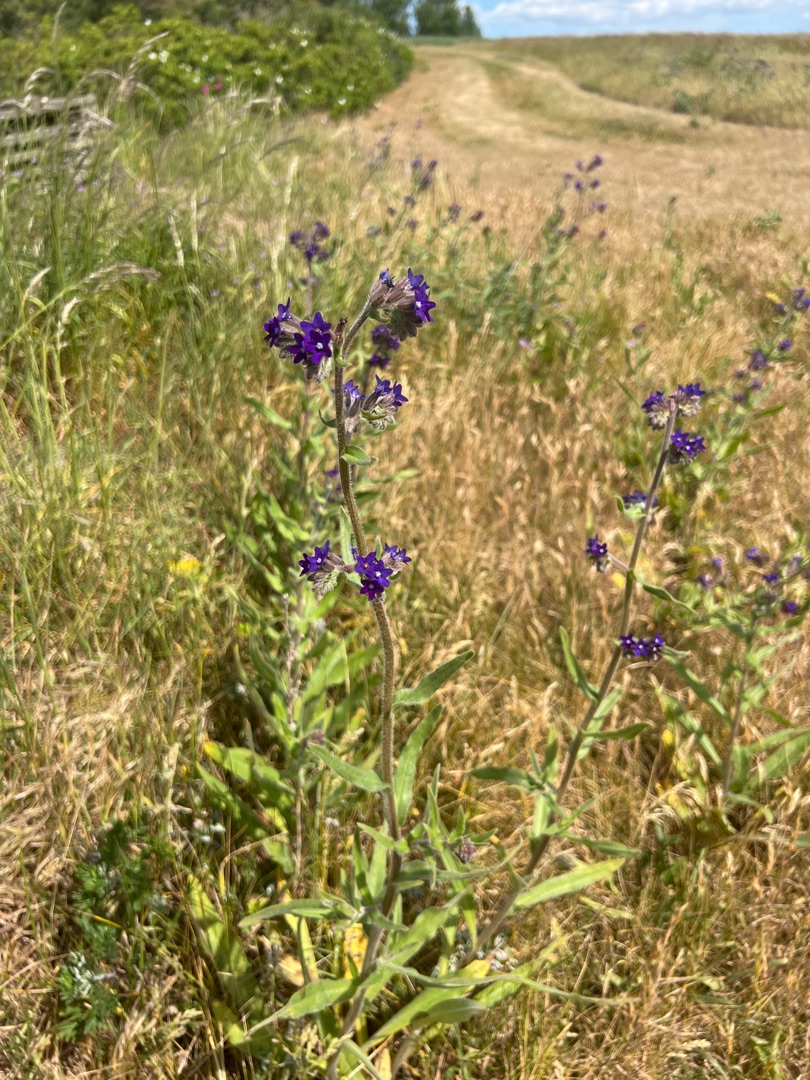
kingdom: Plantae
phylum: Tracheophyta
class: Magnoliopsida
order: Boraginales
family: Boraginaceae
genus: Anchusa
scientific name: Anchusa officinalis
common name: Læge-oksetunge
